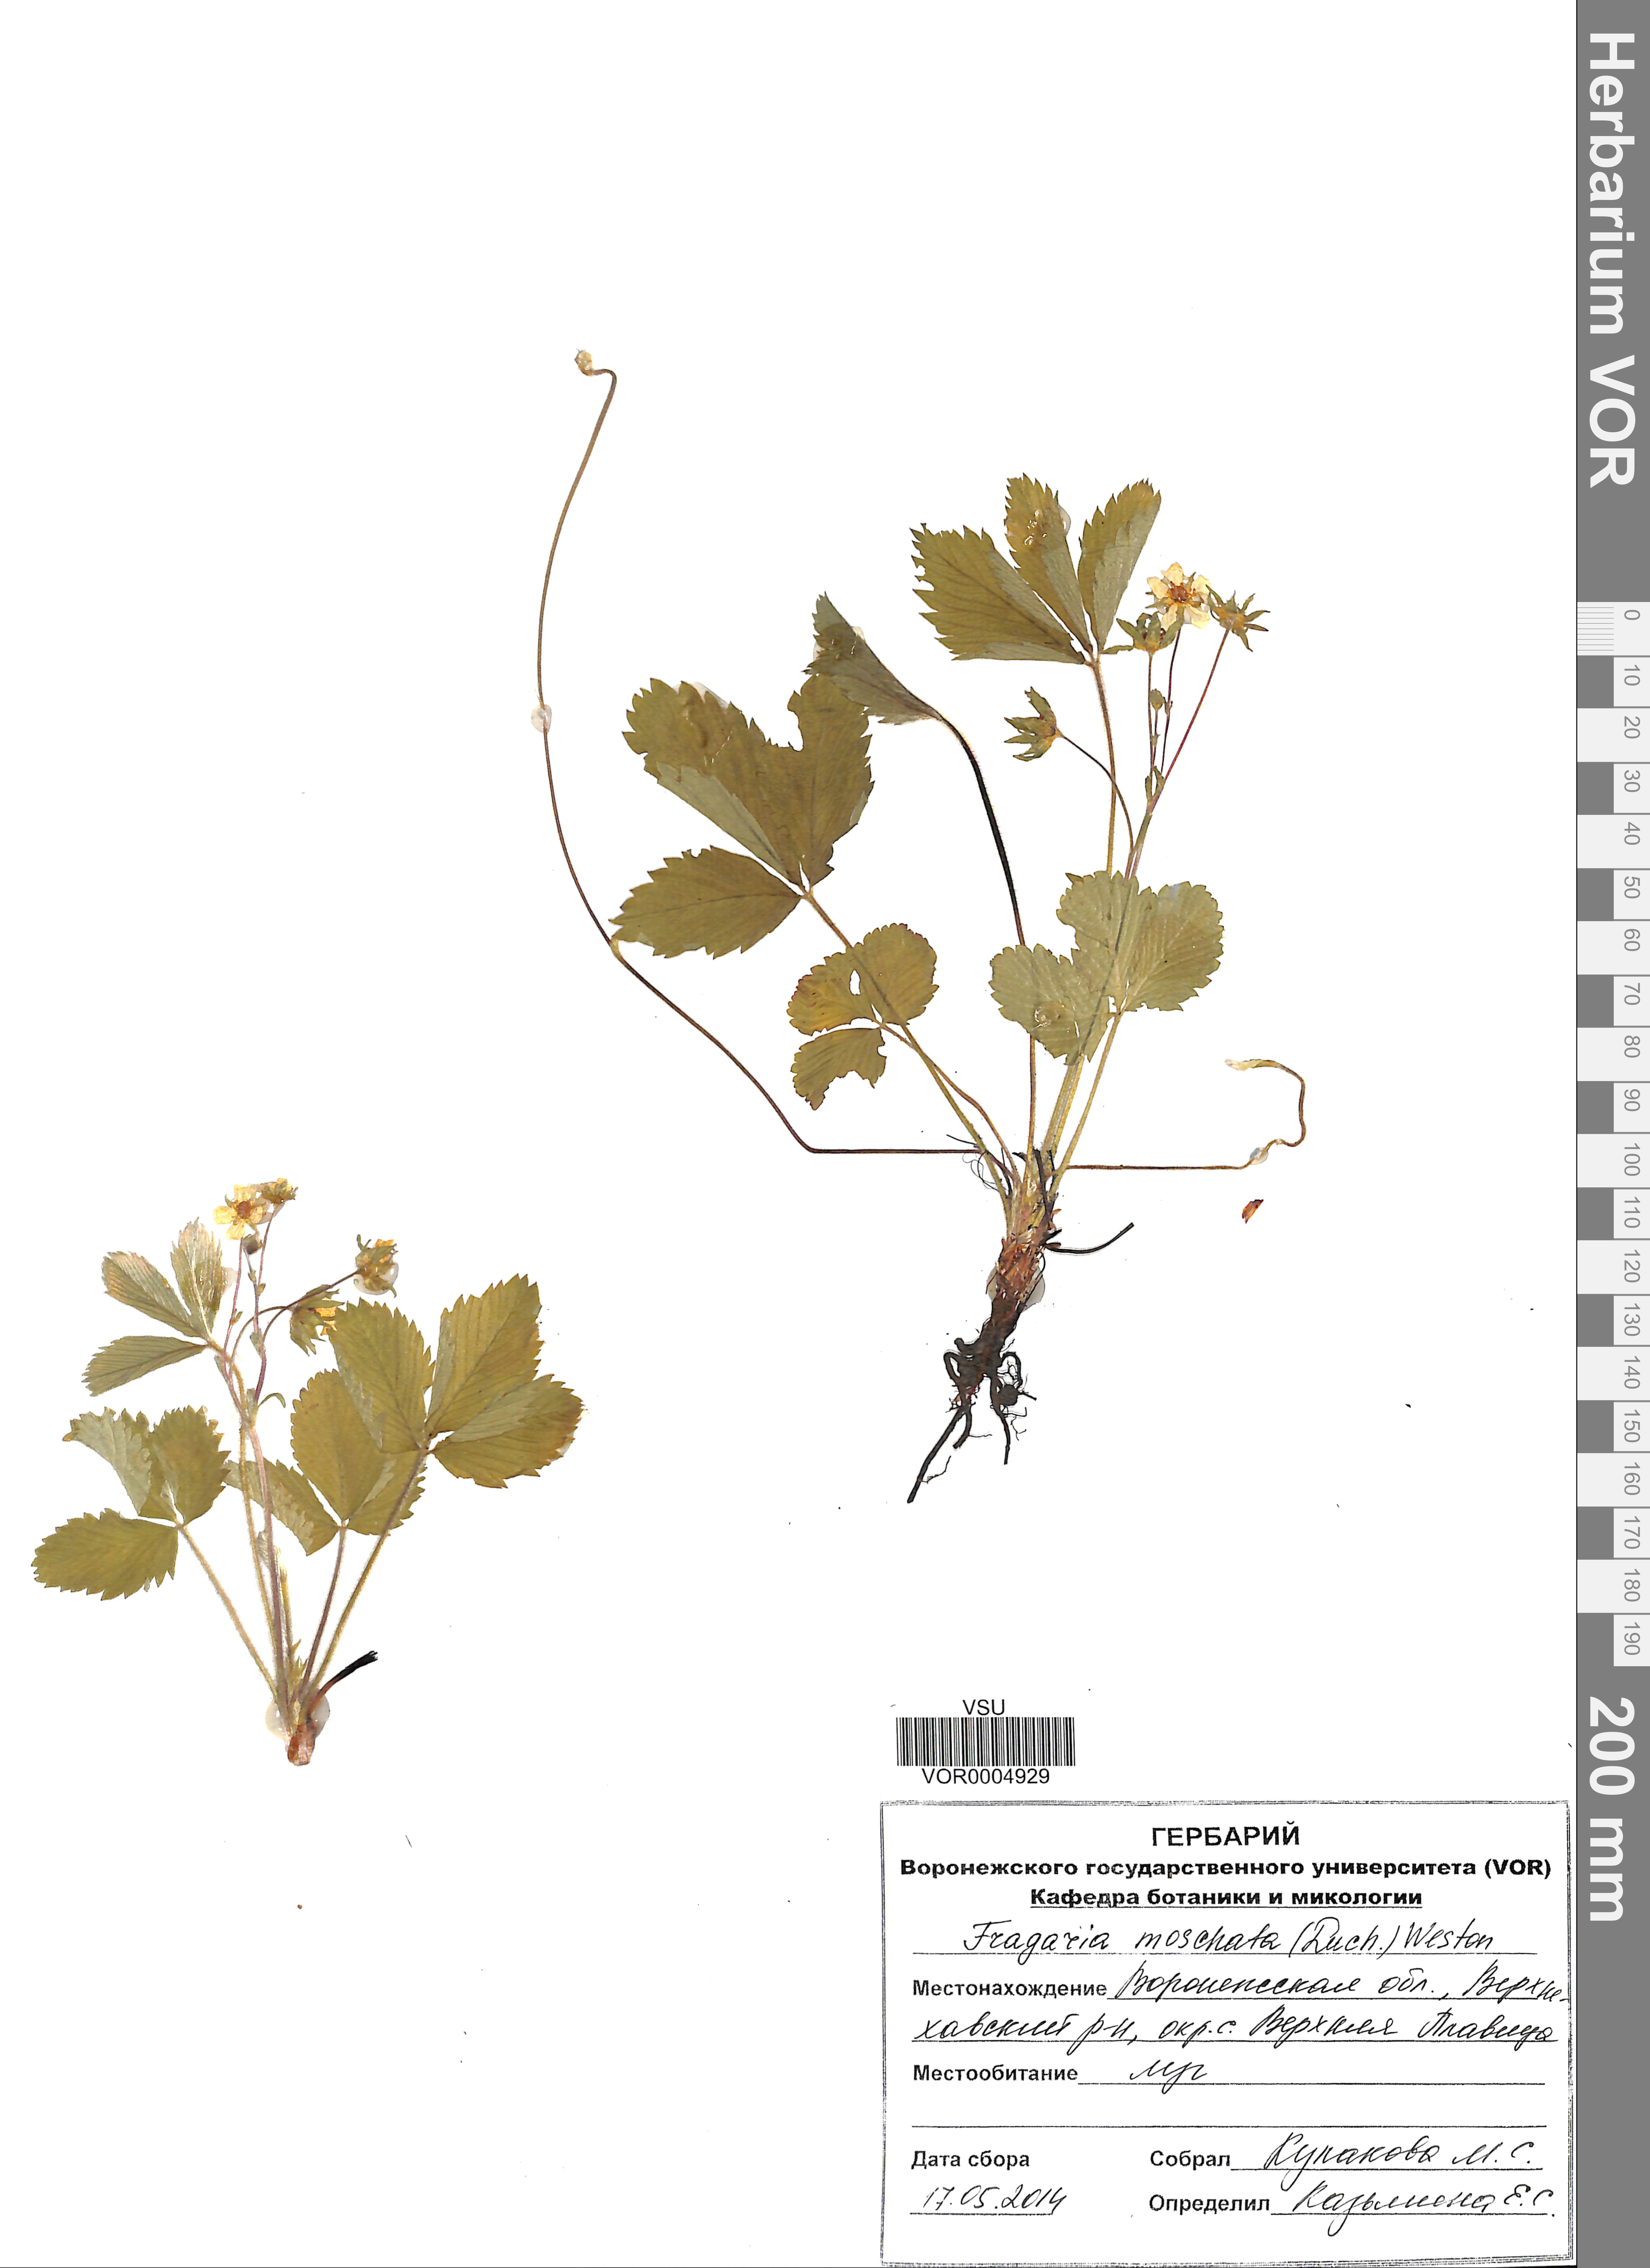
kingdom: Plantae
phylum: Tracheophyta
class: Magnoliopsida
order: Rosales
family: Rosaceae
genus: Fragaria
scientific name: Fragaria moschata
